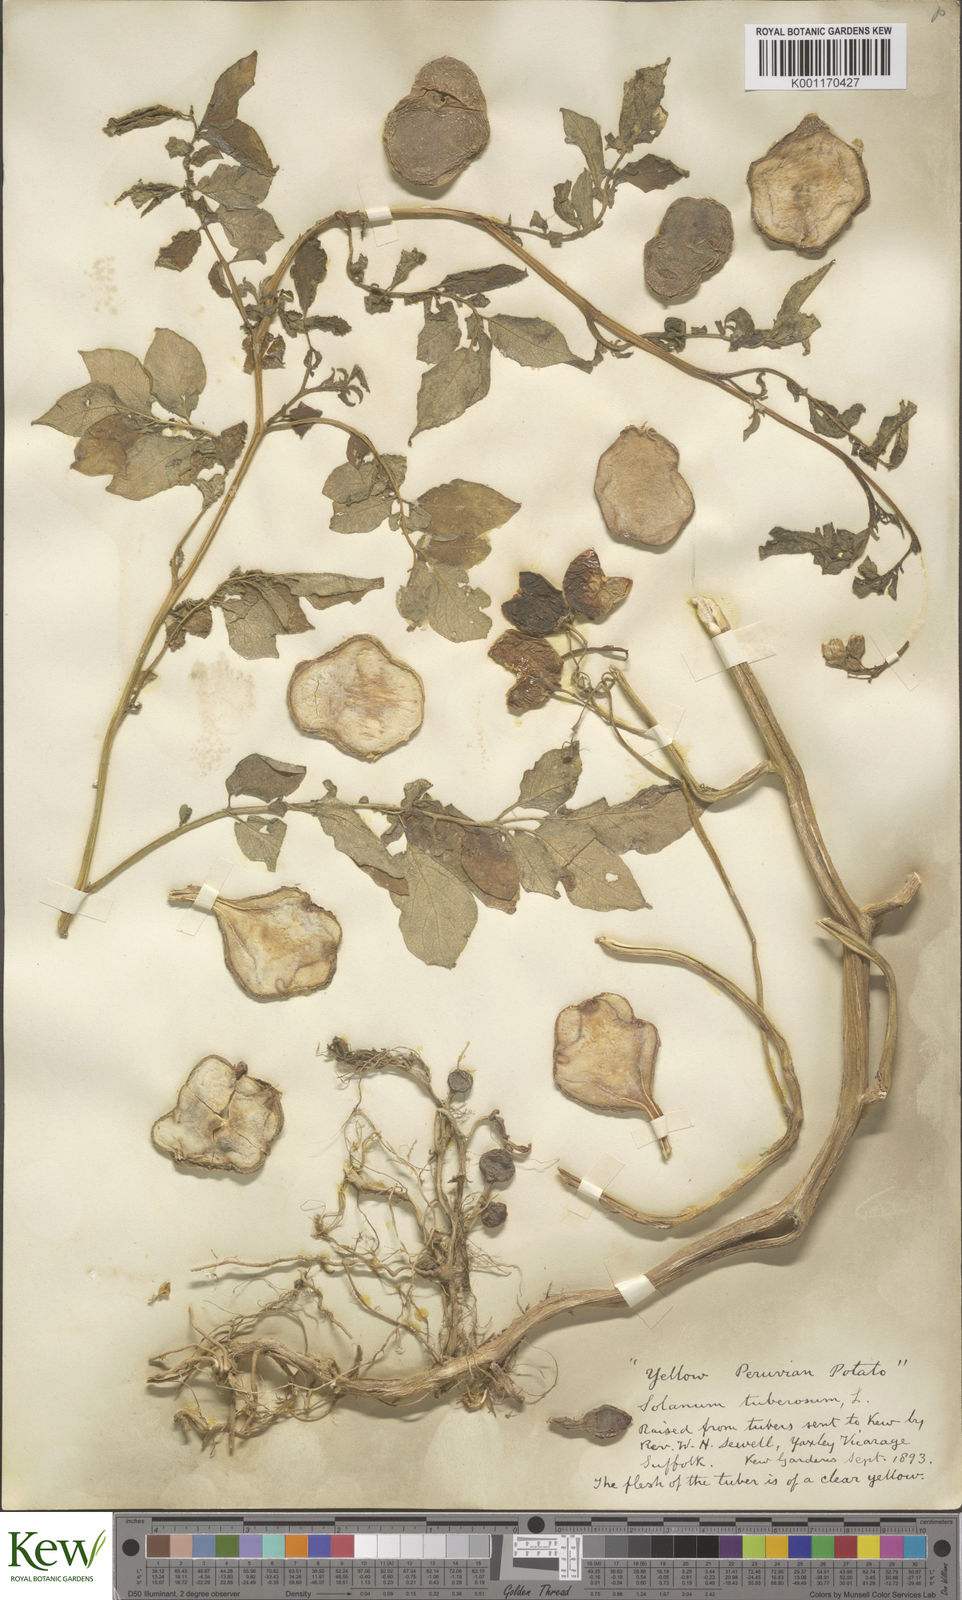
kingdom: Plantae
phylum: Tracheophyta
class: Magnoliopsida
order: Solanales
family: Solanaceae
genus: Solanum
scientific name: Solanum tuberosum
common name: Potato
